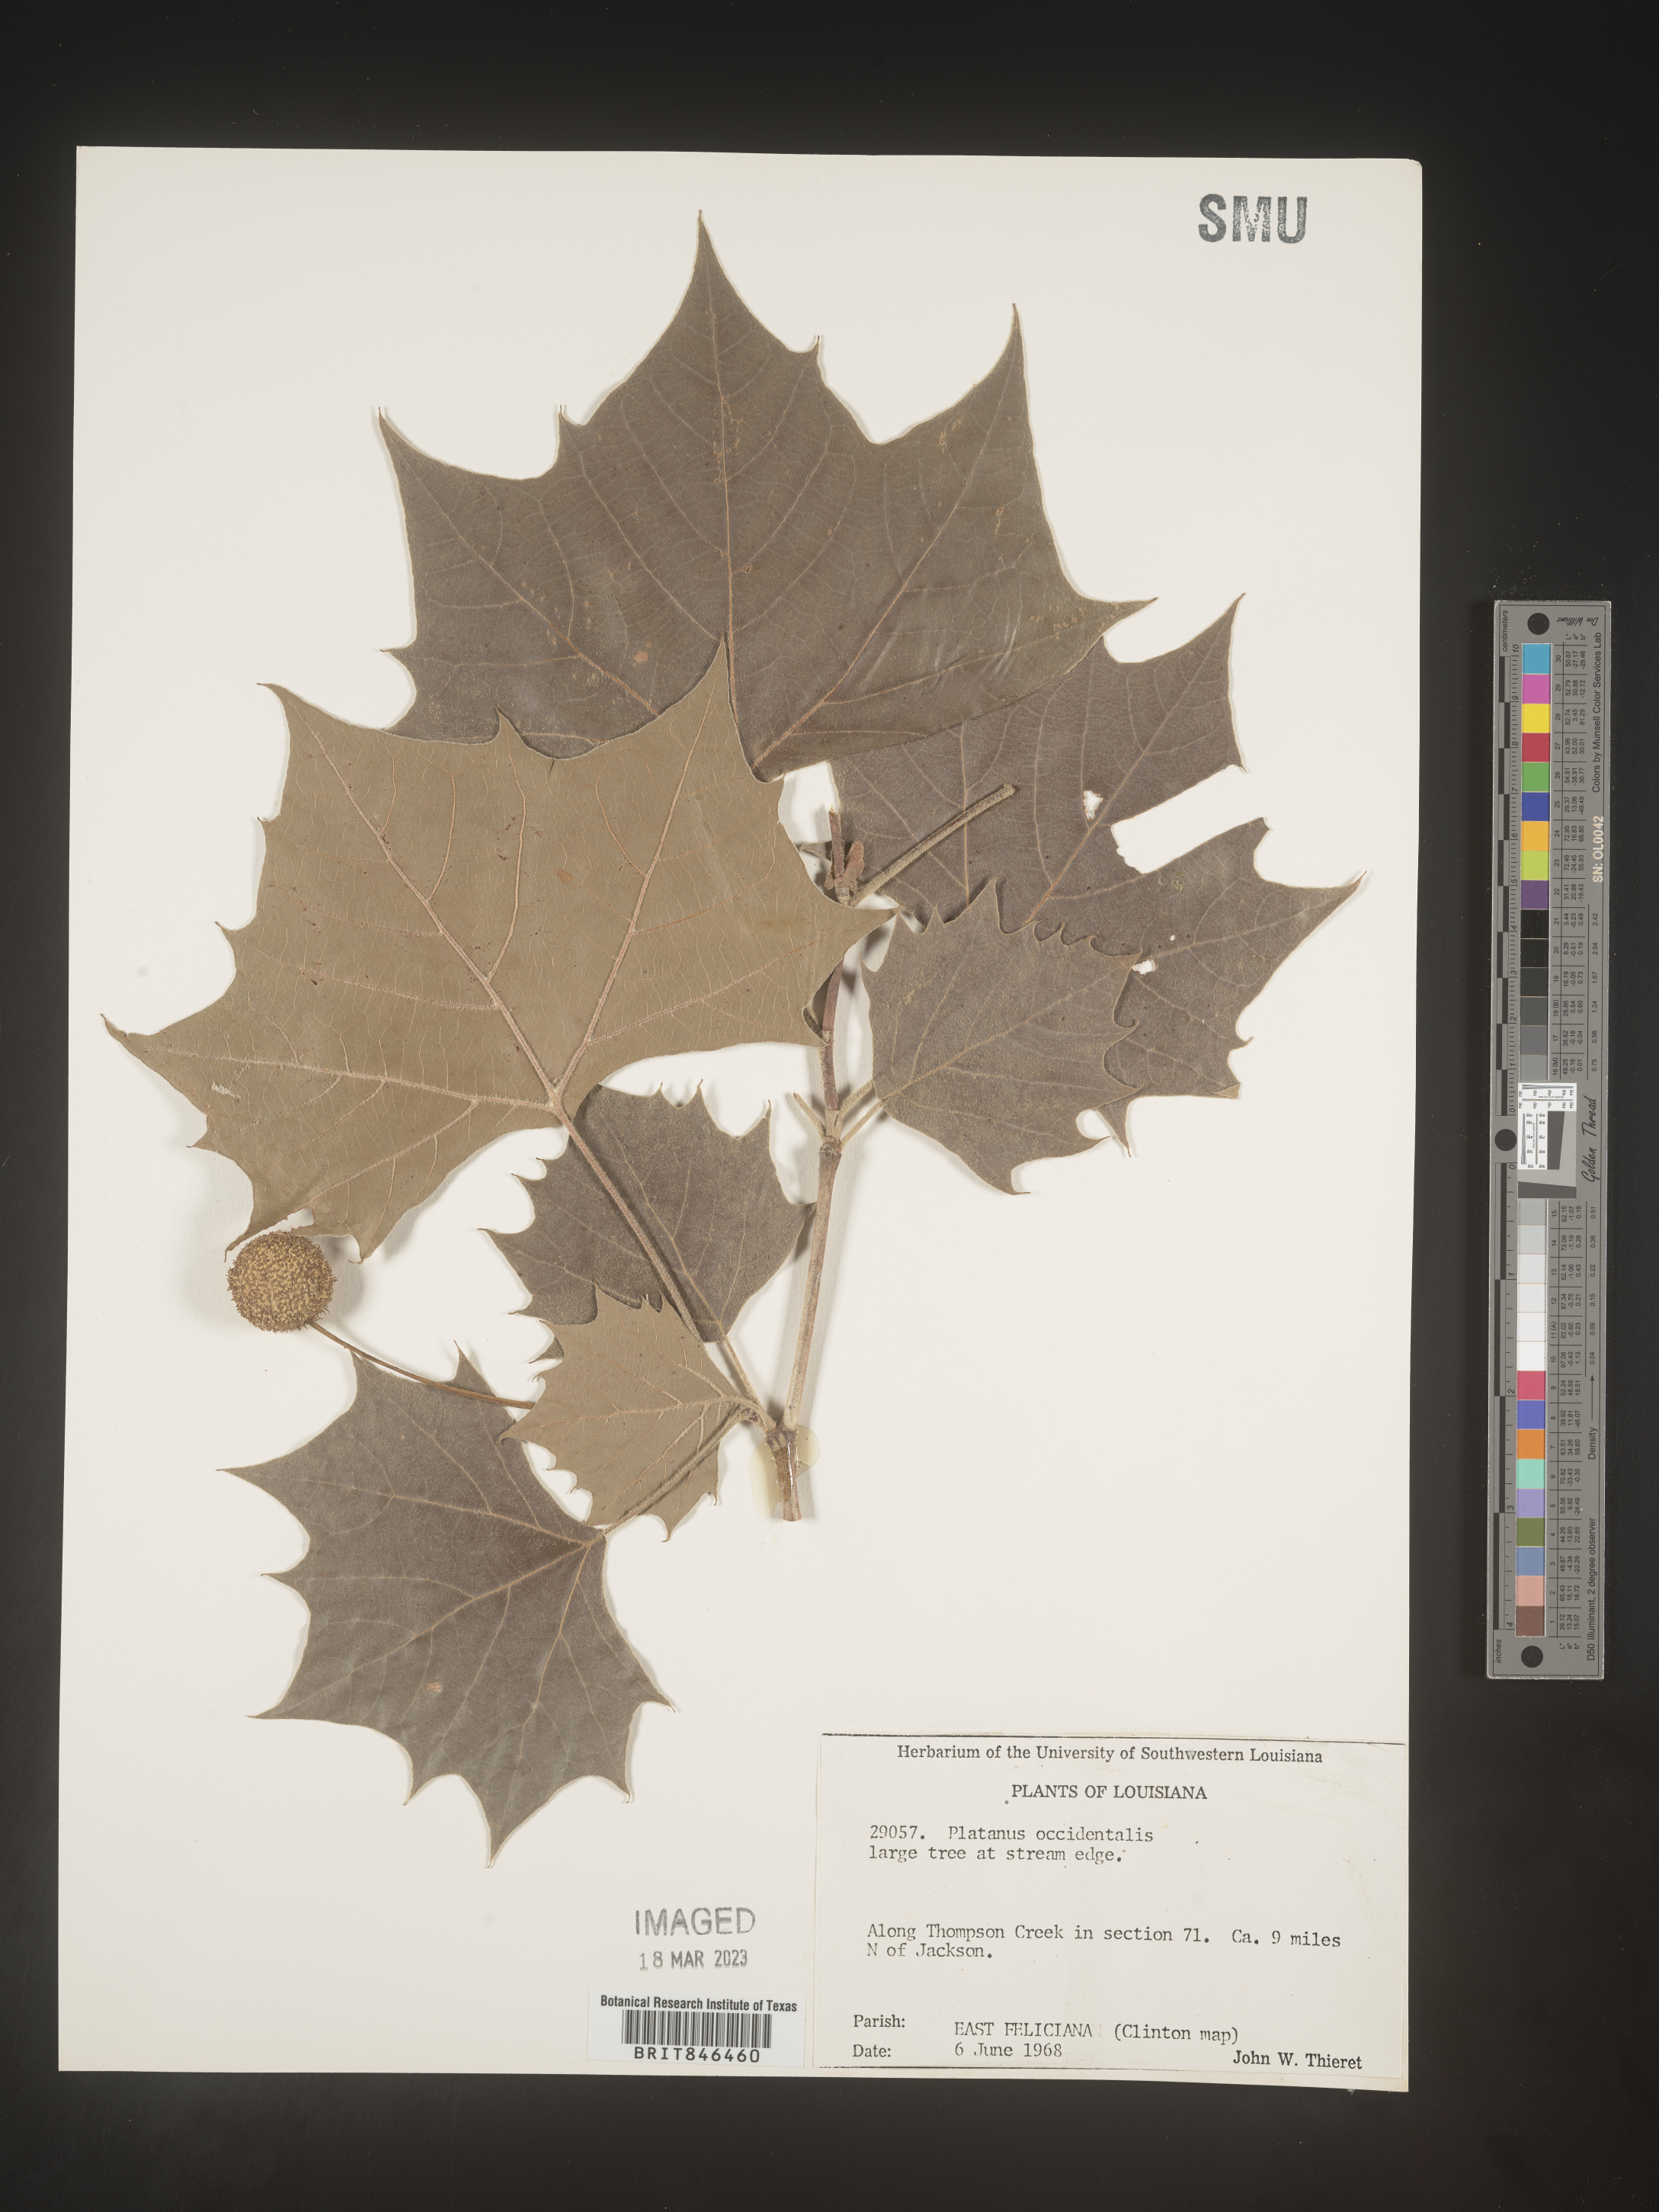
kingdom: Plantae
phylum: Tracheophyta
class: Magnoliopsida
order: Proteales
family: Platanaceae
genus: Platanus
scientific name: Platanus occidentalis
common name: American sycamore
